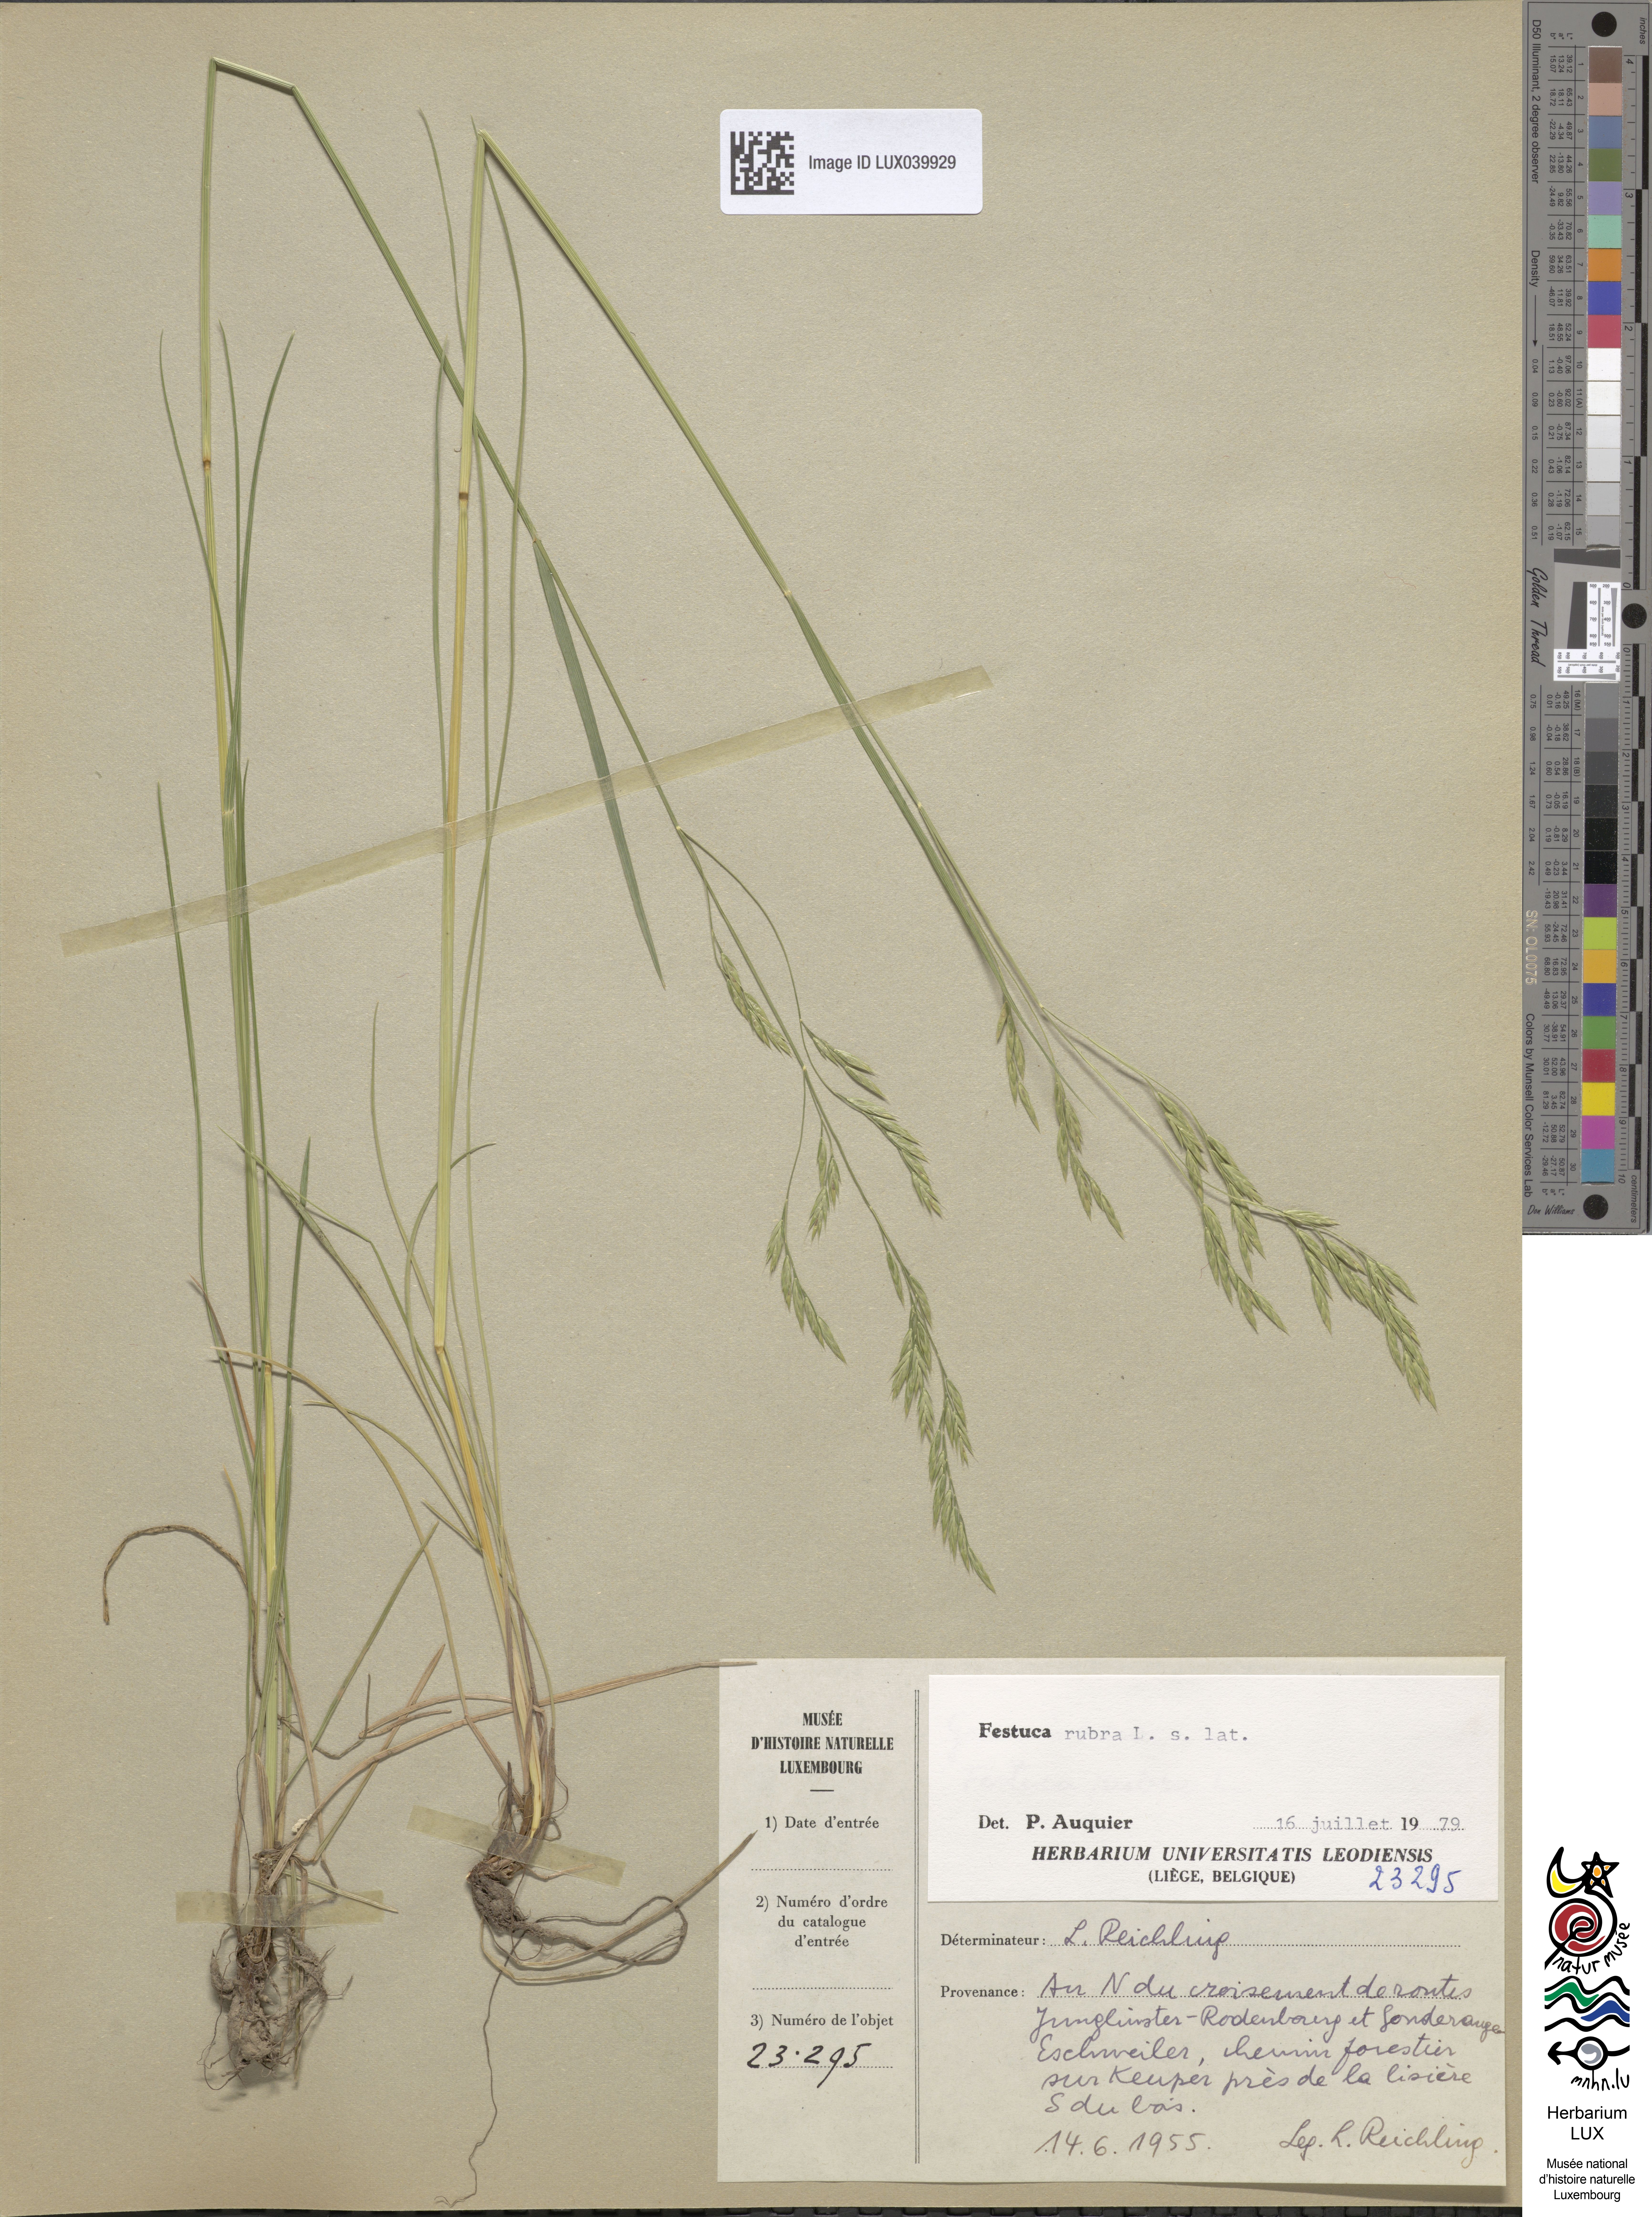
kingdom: Plantae
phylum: Tracheophyta
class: Liliopsida
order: Poales
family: Poaceae
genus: Festuca
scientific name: Festuca rubra
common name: Red fescue
